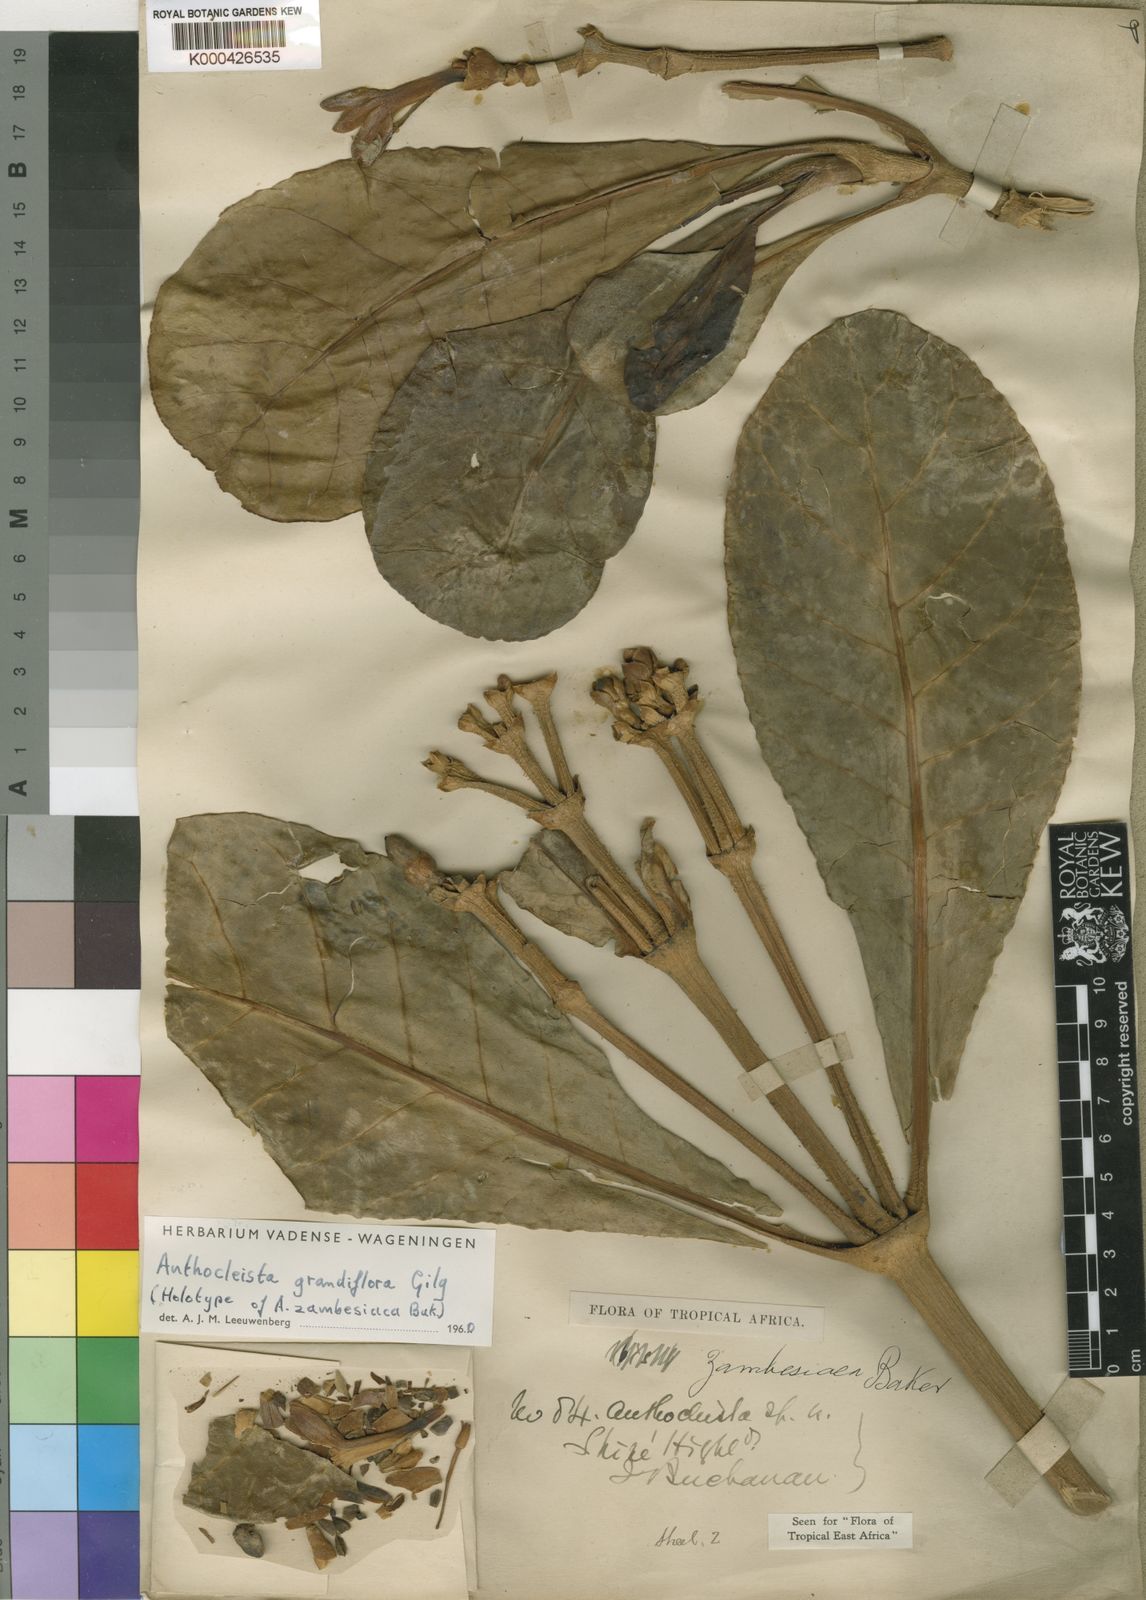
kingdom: Plantae
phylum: Tracheophyta
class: Magnoliopsida
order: Gentianales
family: Gentianaceae
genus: Anthocleista
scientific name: Anthocleista grandiflora
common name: Forest big-leaf
